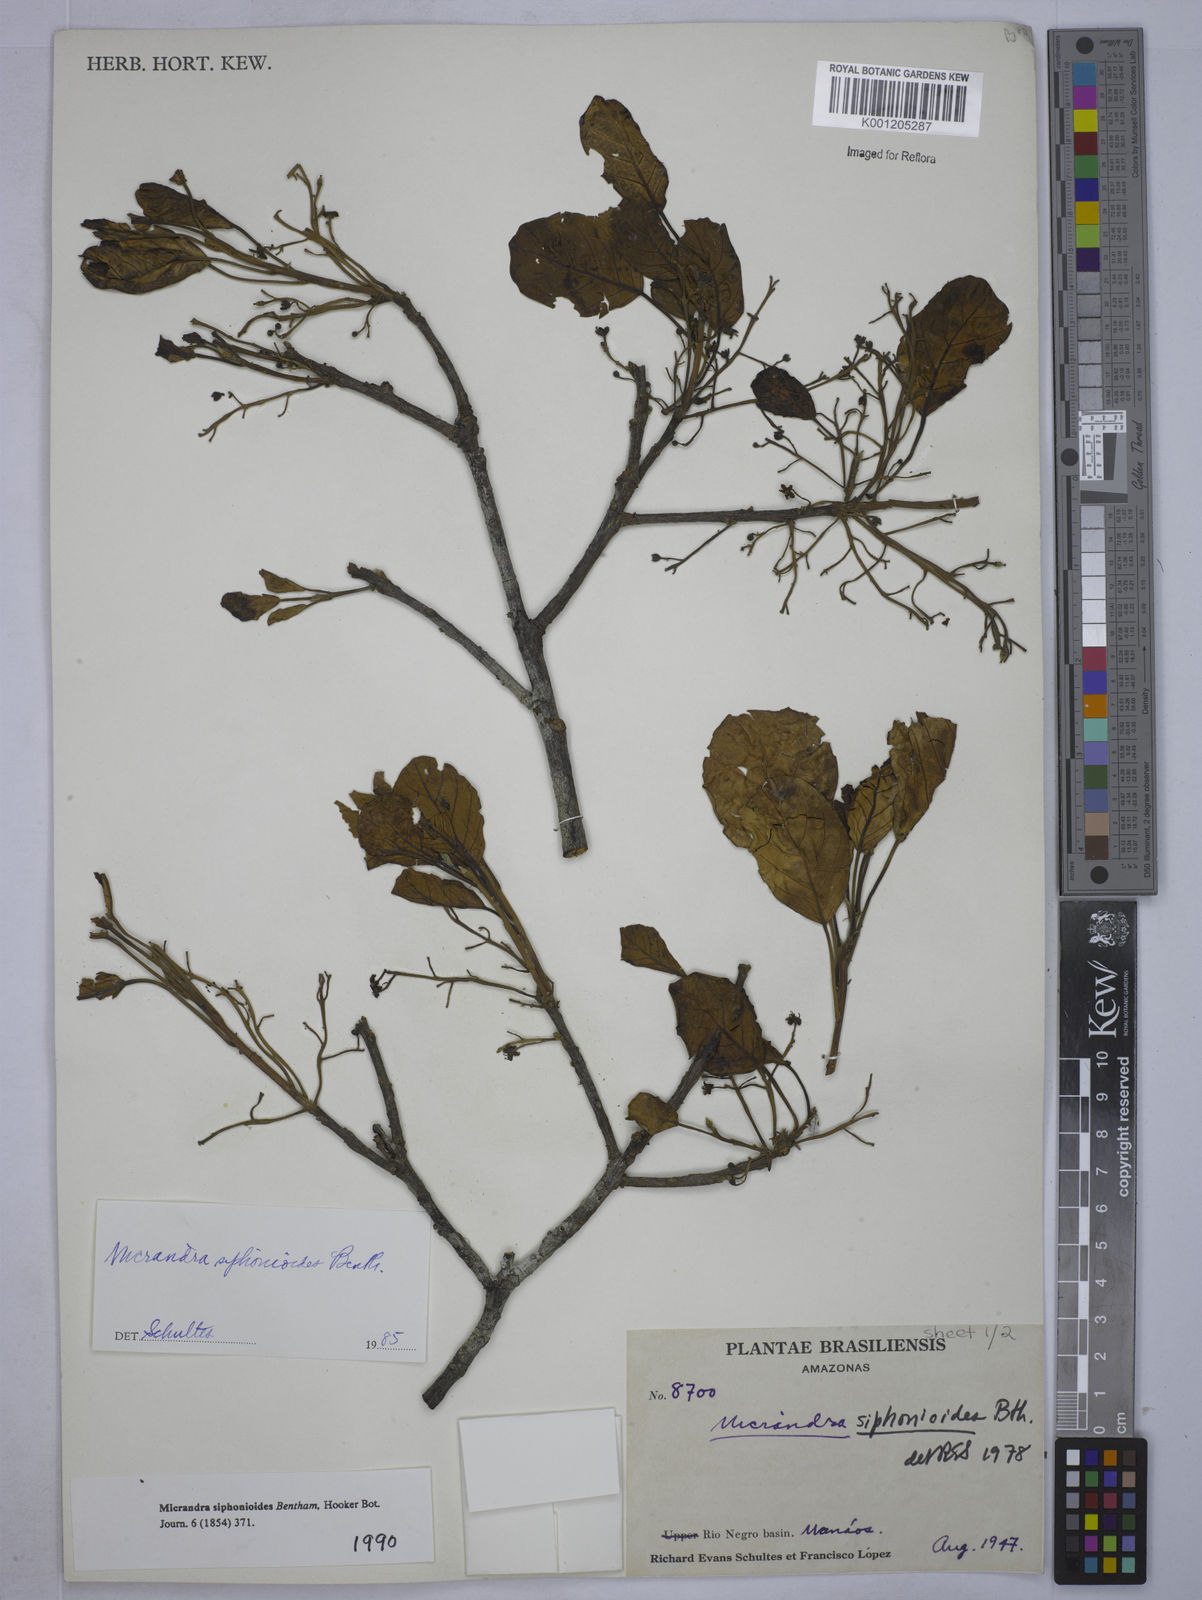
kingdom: Plantae
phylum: Tracheophyta
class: Magnoliopsida
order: Malpighiales
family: Euphorbiaceae
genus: Micrandra
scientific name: Micrandra siphonioides
